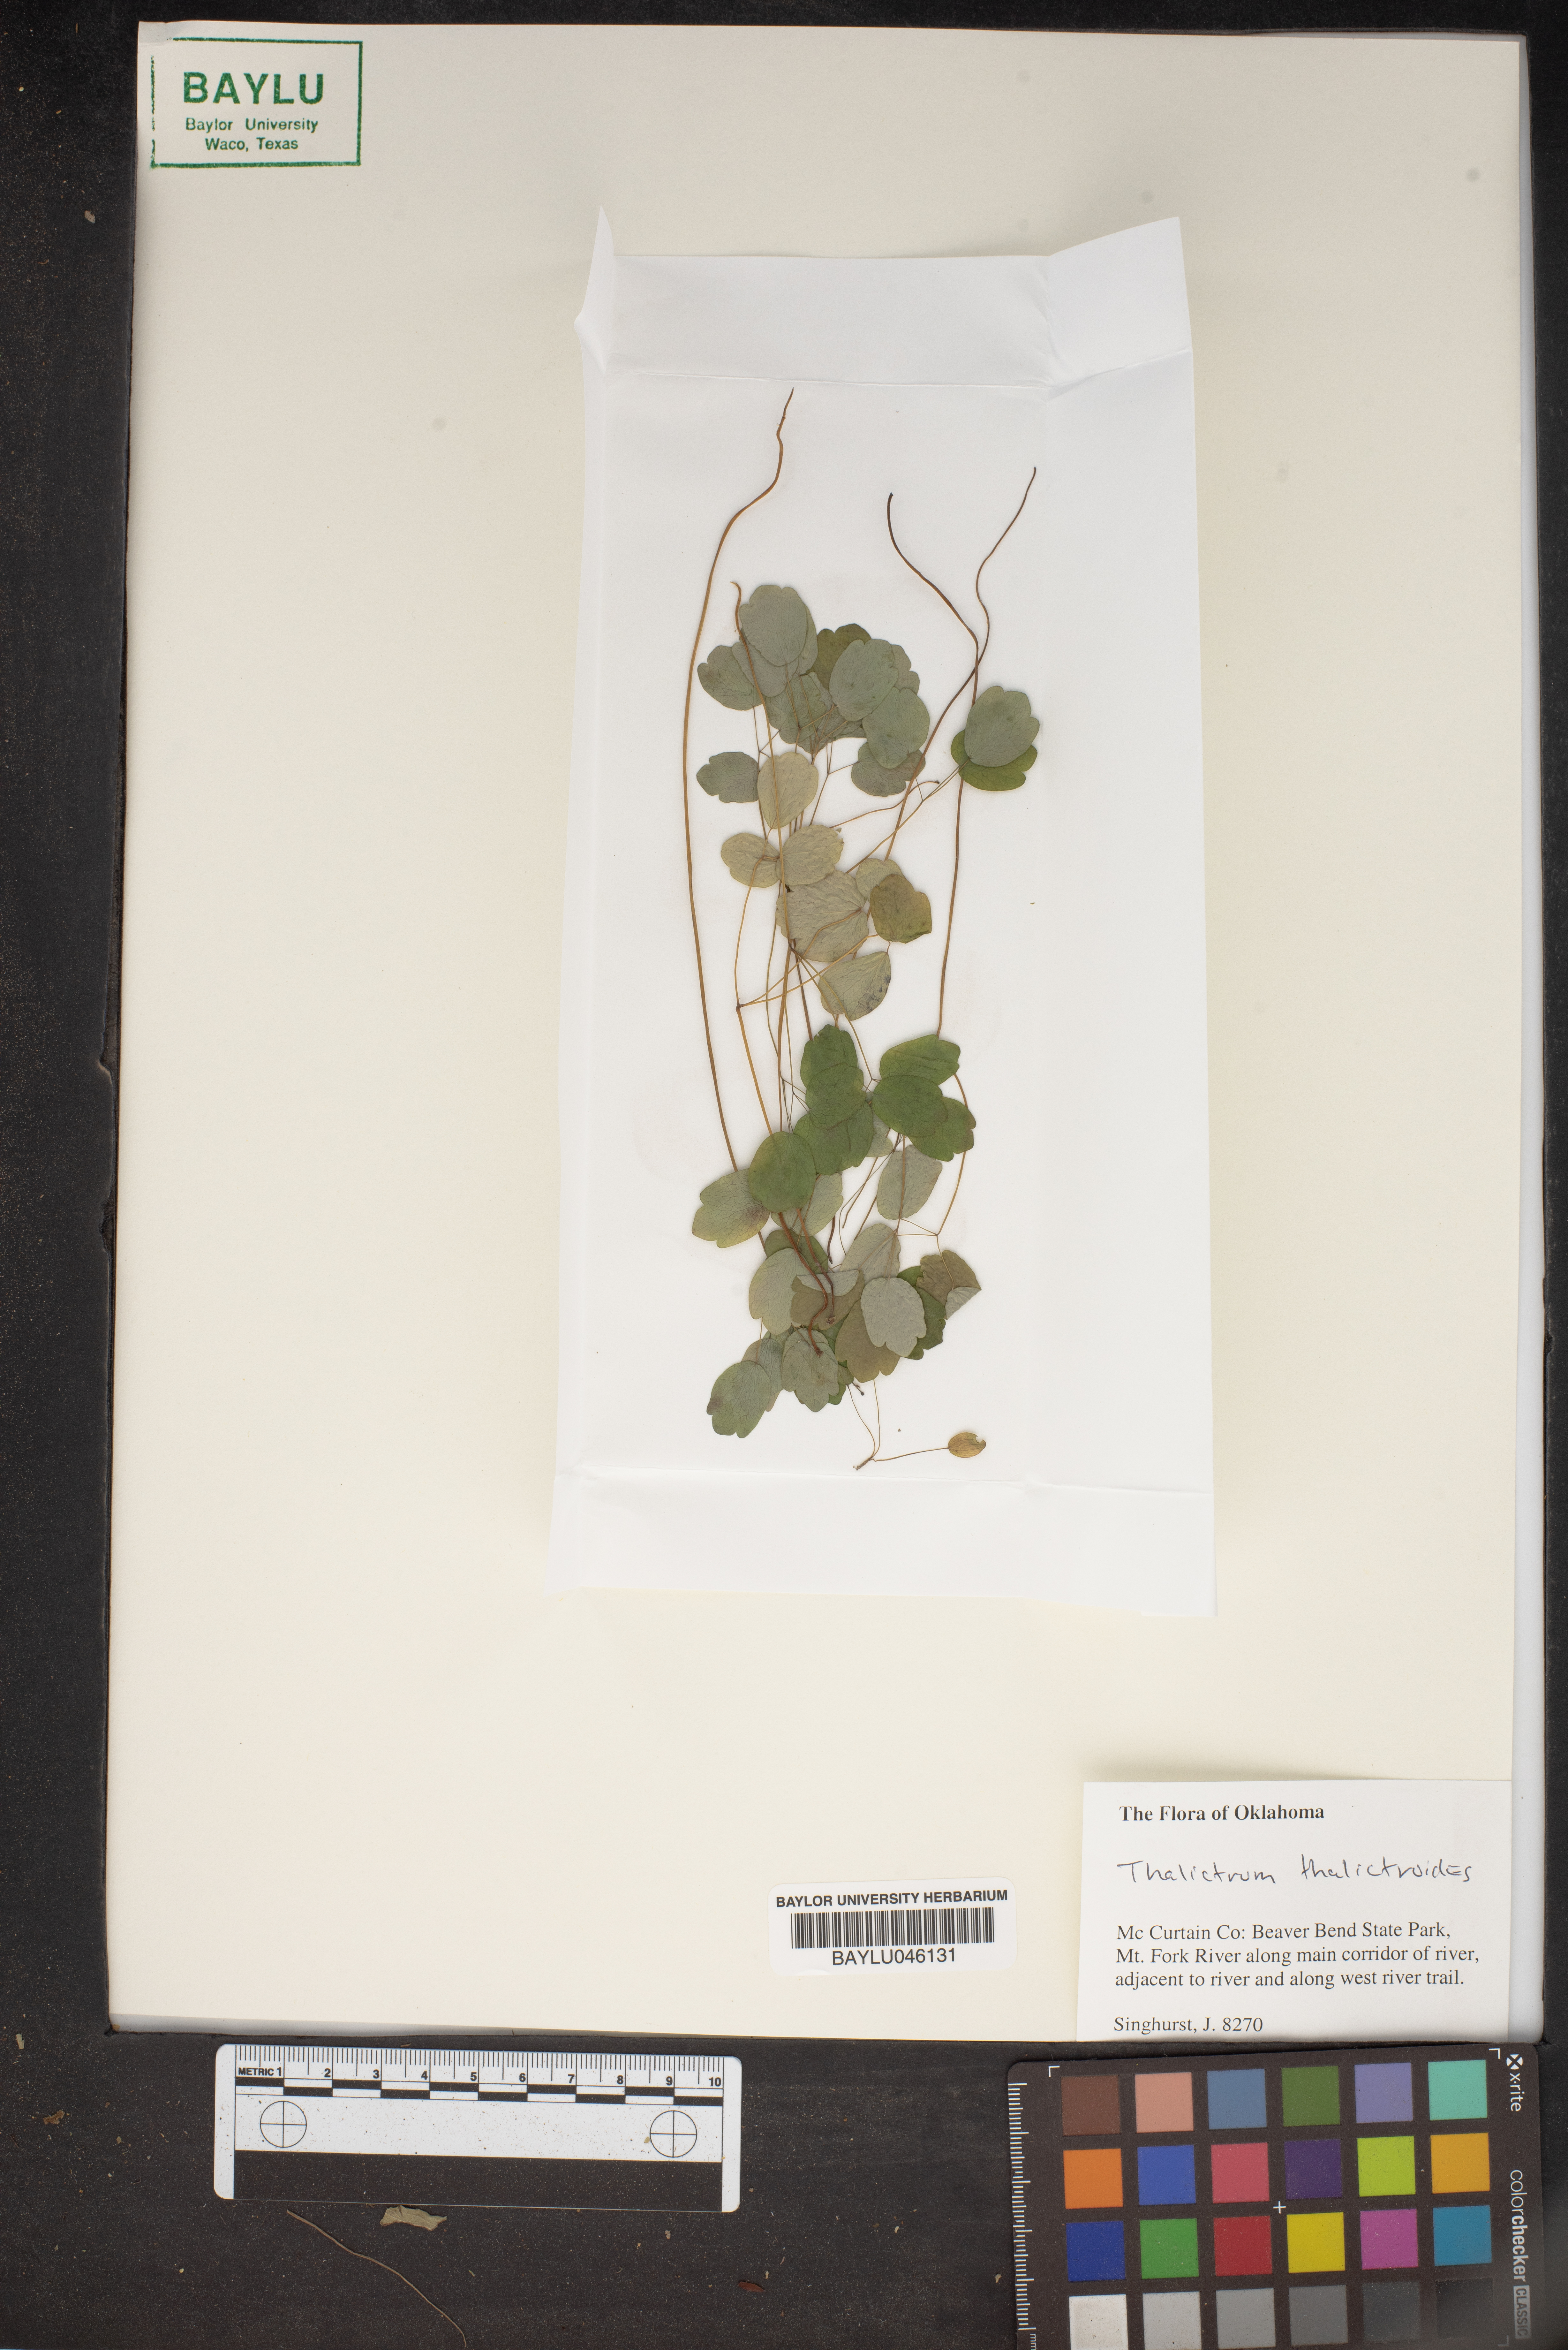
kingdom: Plantae
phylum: Tracheophyta
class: Magnoliopsida
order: Ranunculales
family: Ranunculaceae
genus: Thalictrum
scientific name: Thalictrum thalictroides
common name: Rue-anemone
